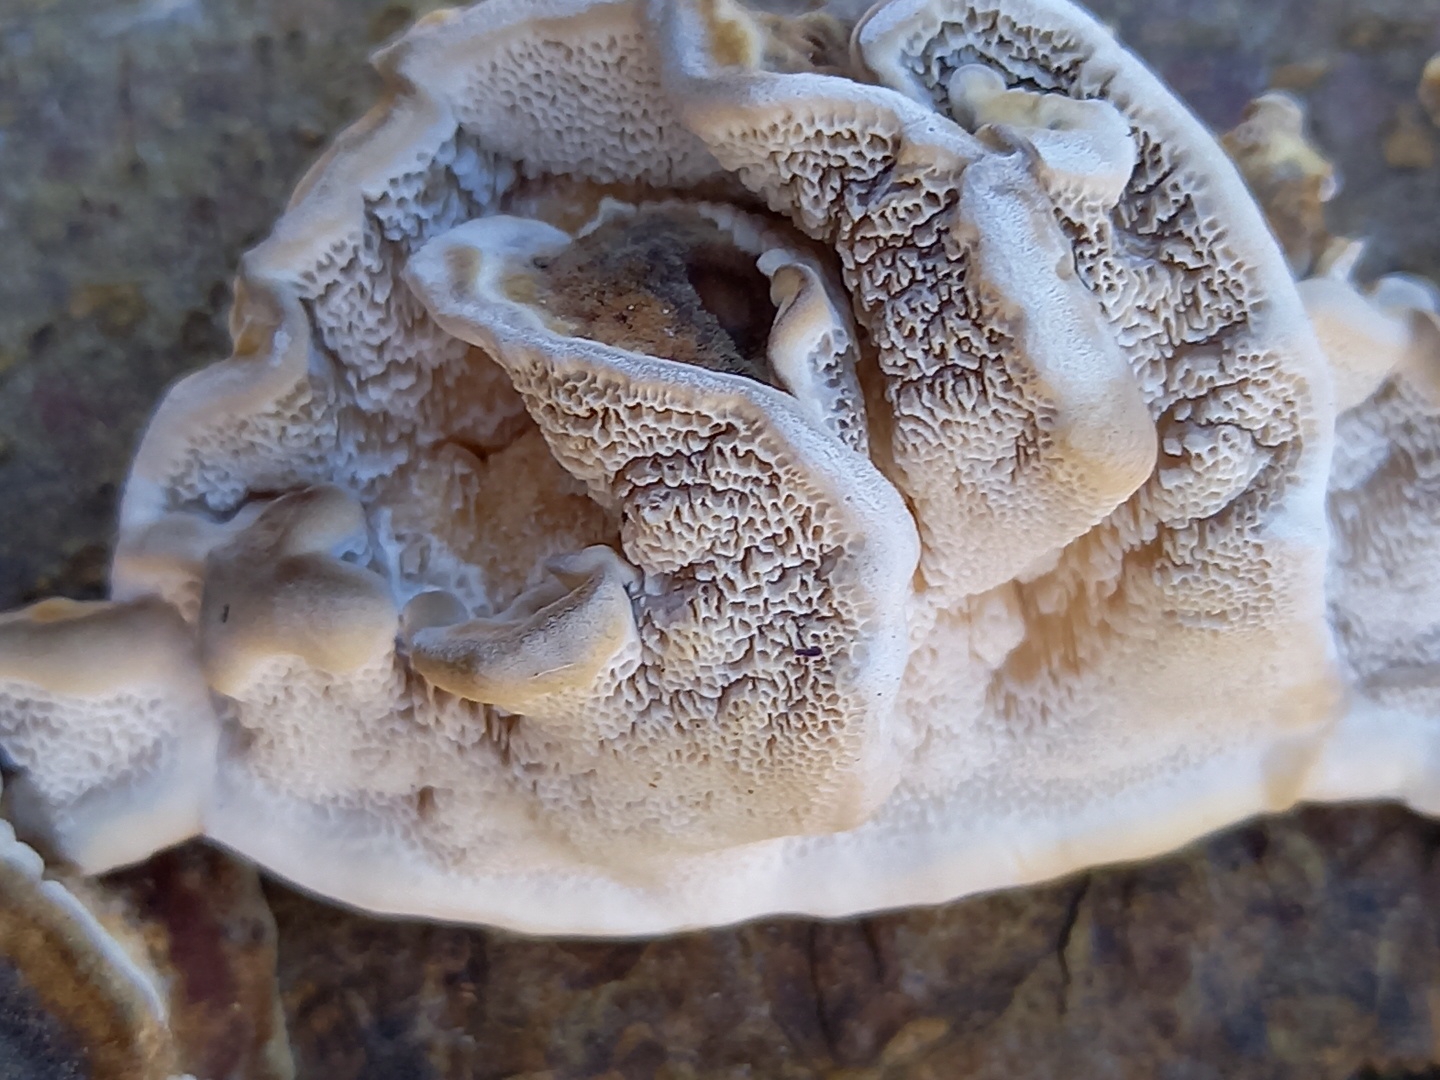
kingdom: Fungi
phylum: Basidiomycota
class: Agaricomycetes
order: Polyporales
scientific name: Polyporales
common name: poresvampordenen
